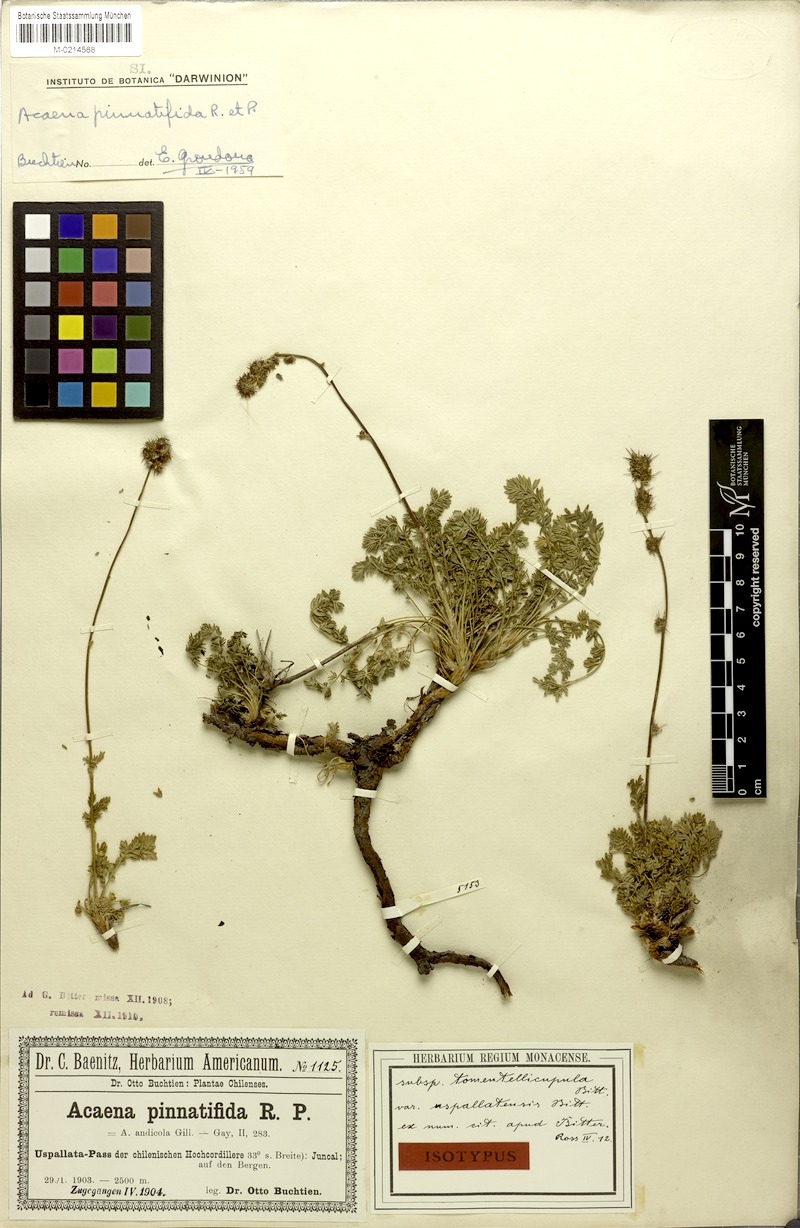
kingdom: Plantae
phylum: Tracheophyta
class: Magnoliopsida
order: Rosales
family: Rosaceae
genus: Acaena
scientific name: Acaena pinnatifida
